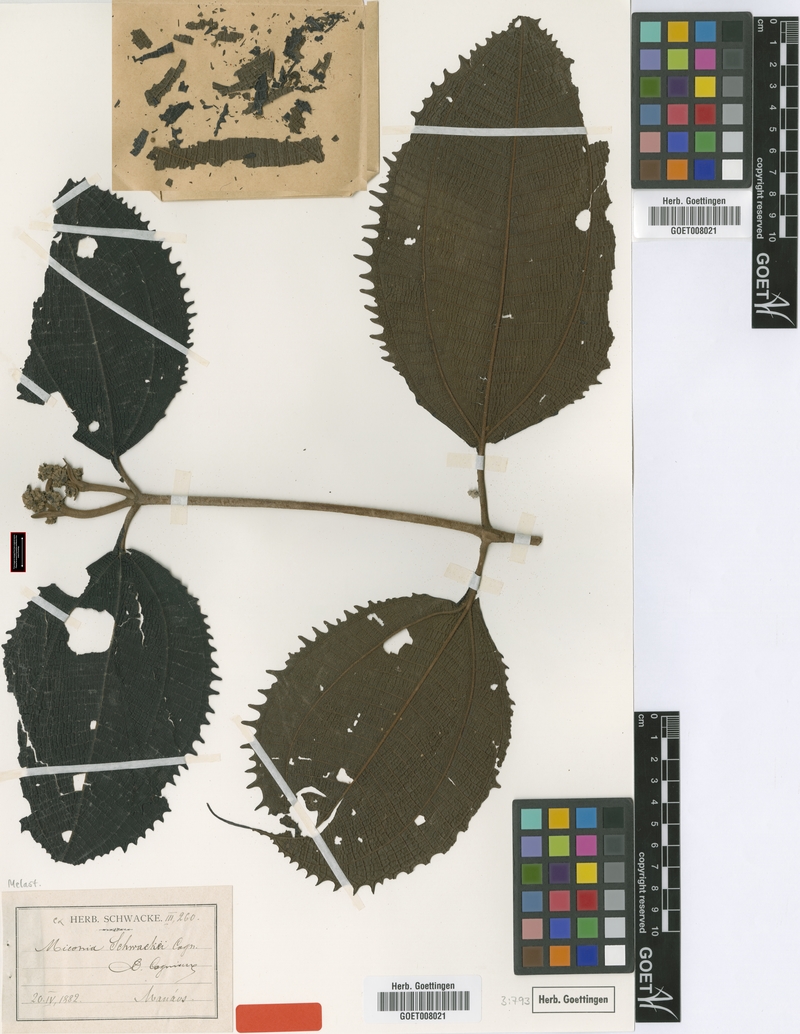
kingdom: Plantae
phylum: Tracheophyta
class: Magnoliopsida
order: Myrtales
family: Melastomataceae
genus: Miconia
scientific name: Miconia schwackei
